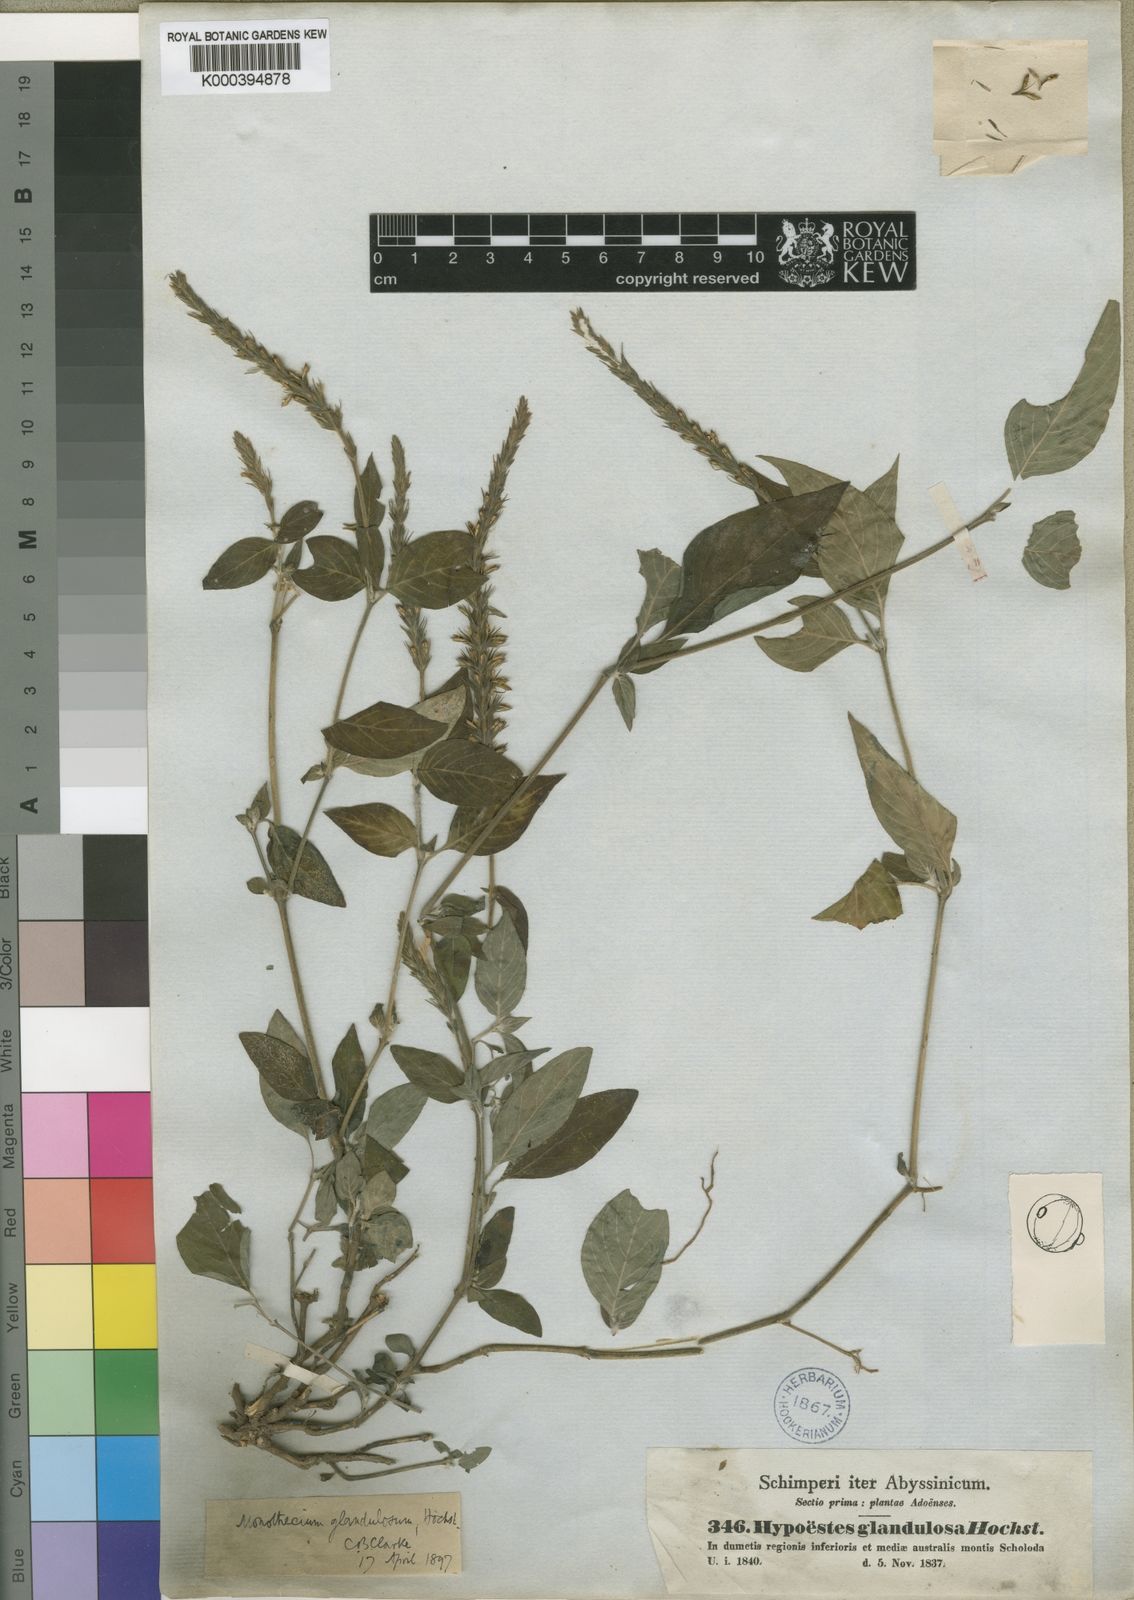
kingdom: Plantae
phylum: Tracheophyta
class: Magnoliopsida
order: Lamiales
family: Acanthaceae
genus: Monothecium
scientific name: Monothecium glandulosum
